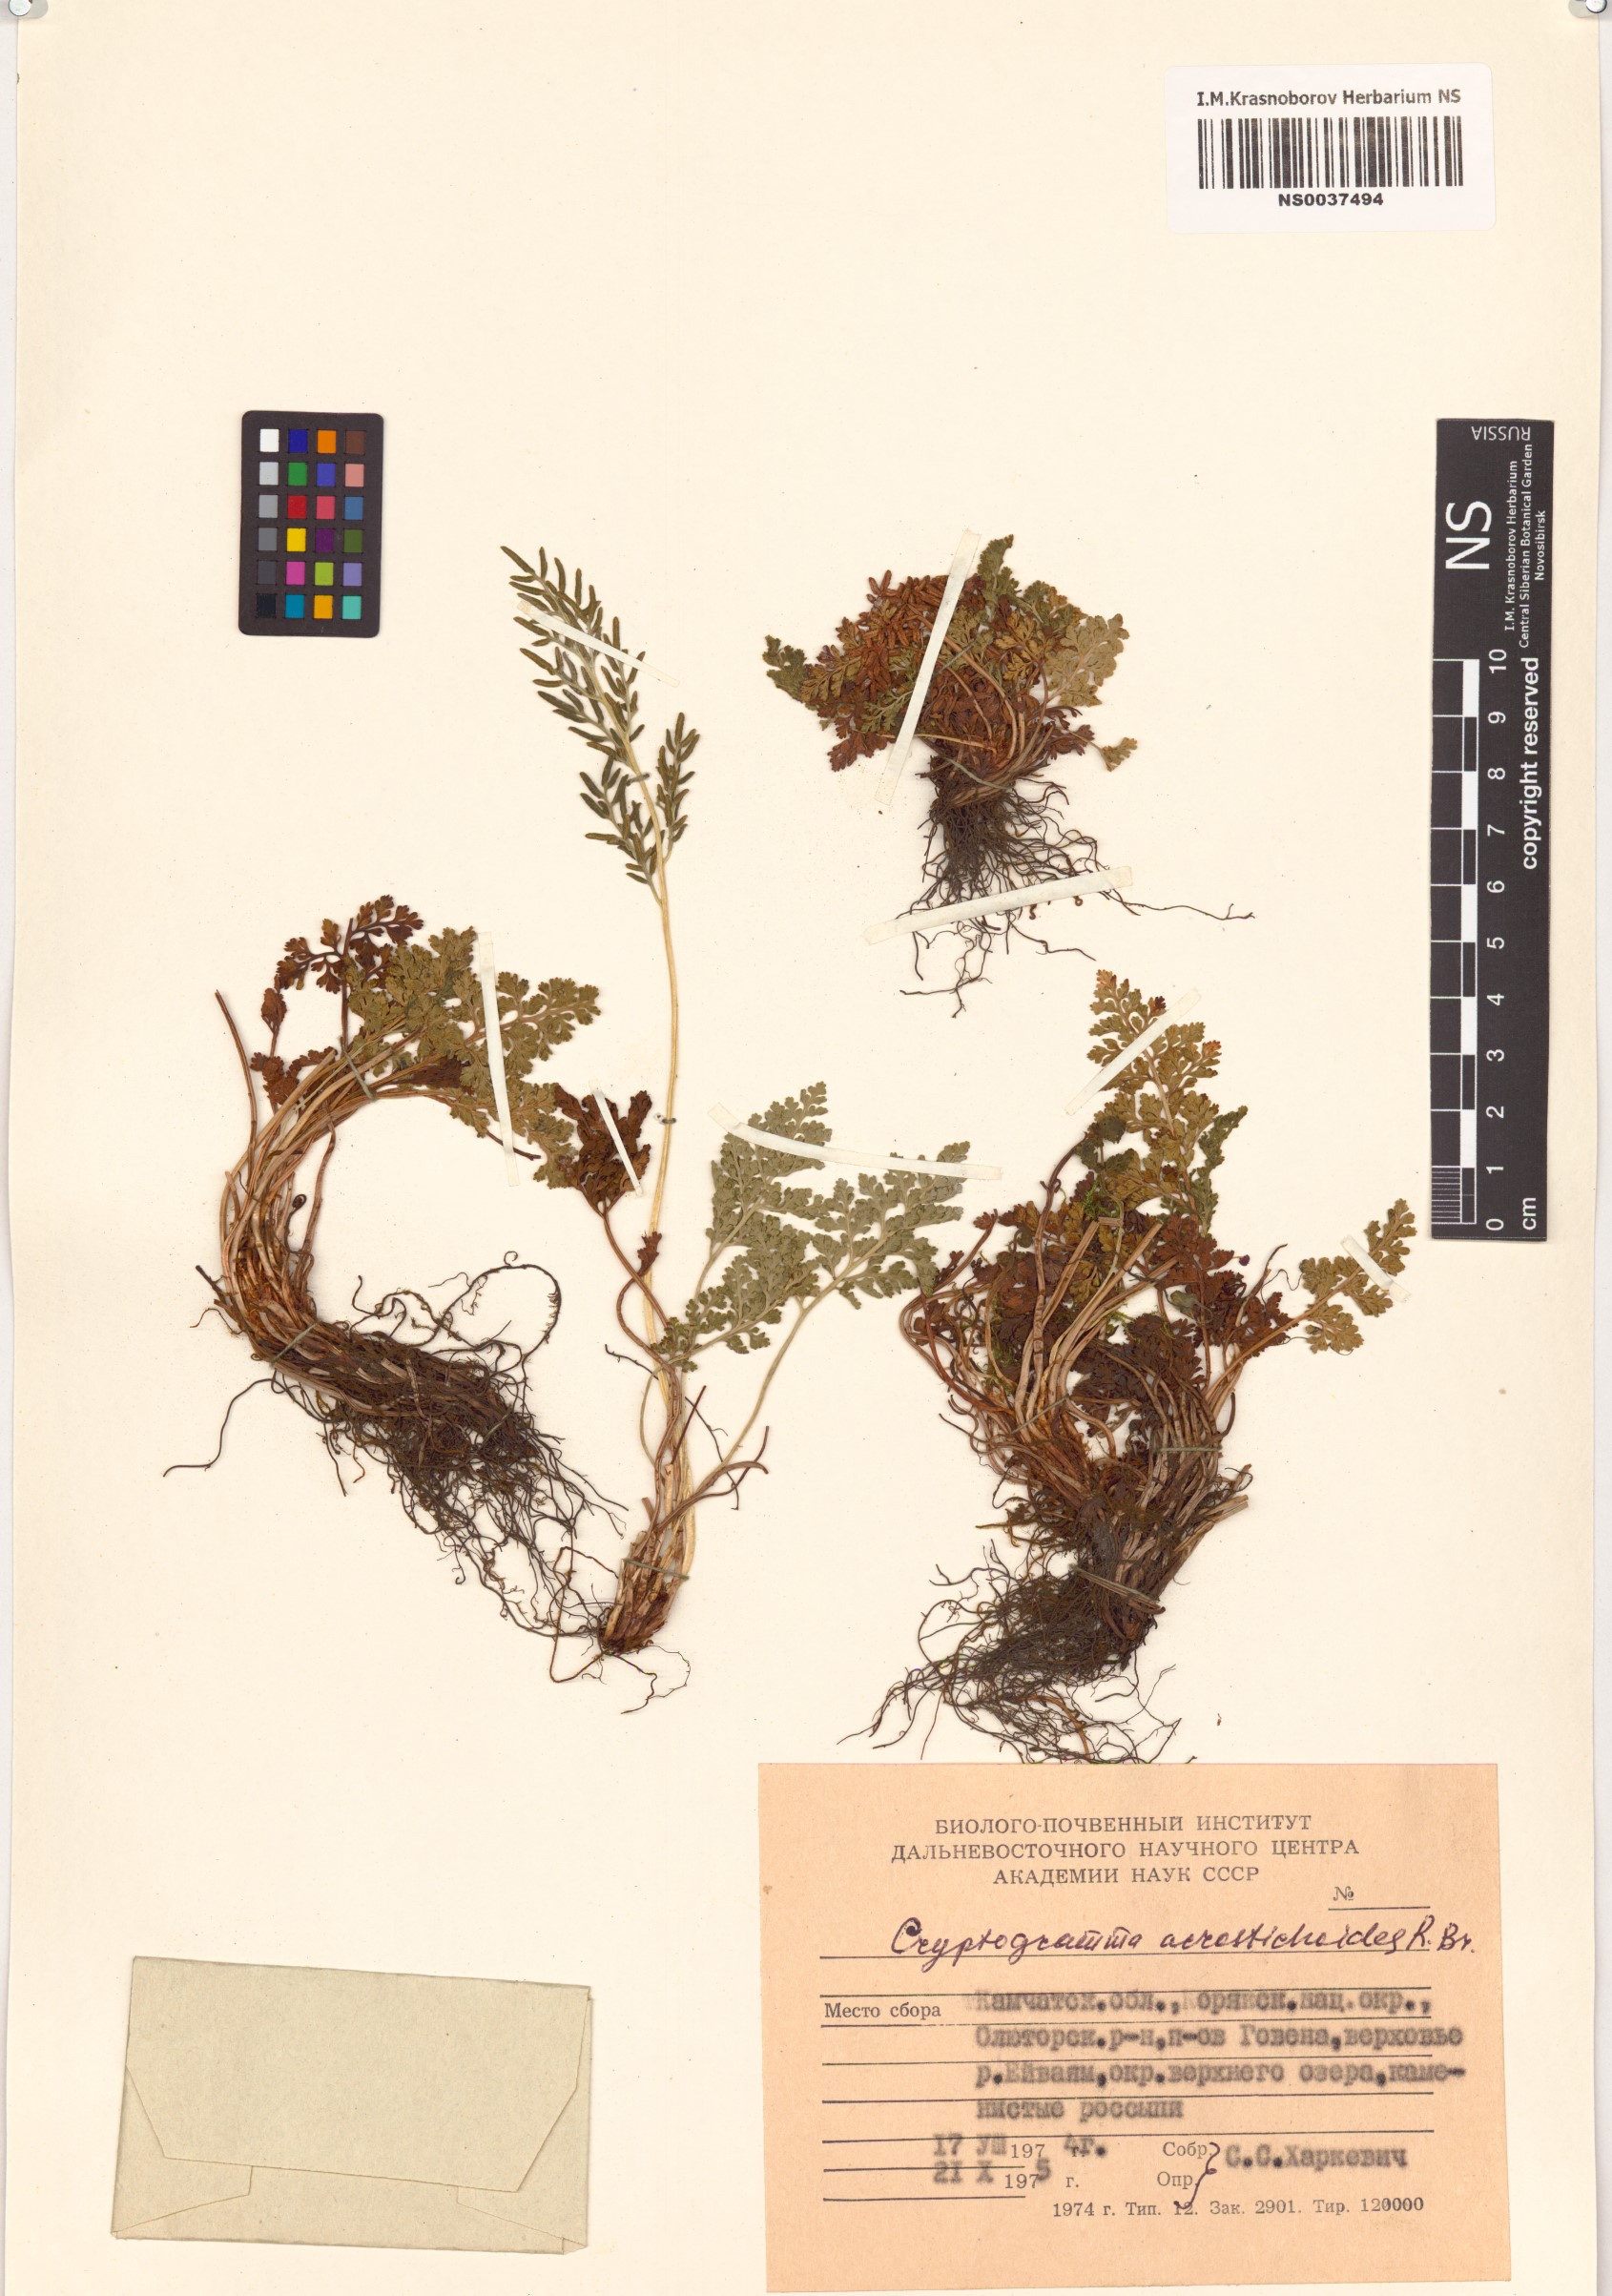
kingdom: Plantae
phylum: Tracheophyta
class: Polypodiopsida
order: Polypodiales
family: Pteridaceae
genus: Cryptogramma
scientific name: Cryptogramma acrostichoides
